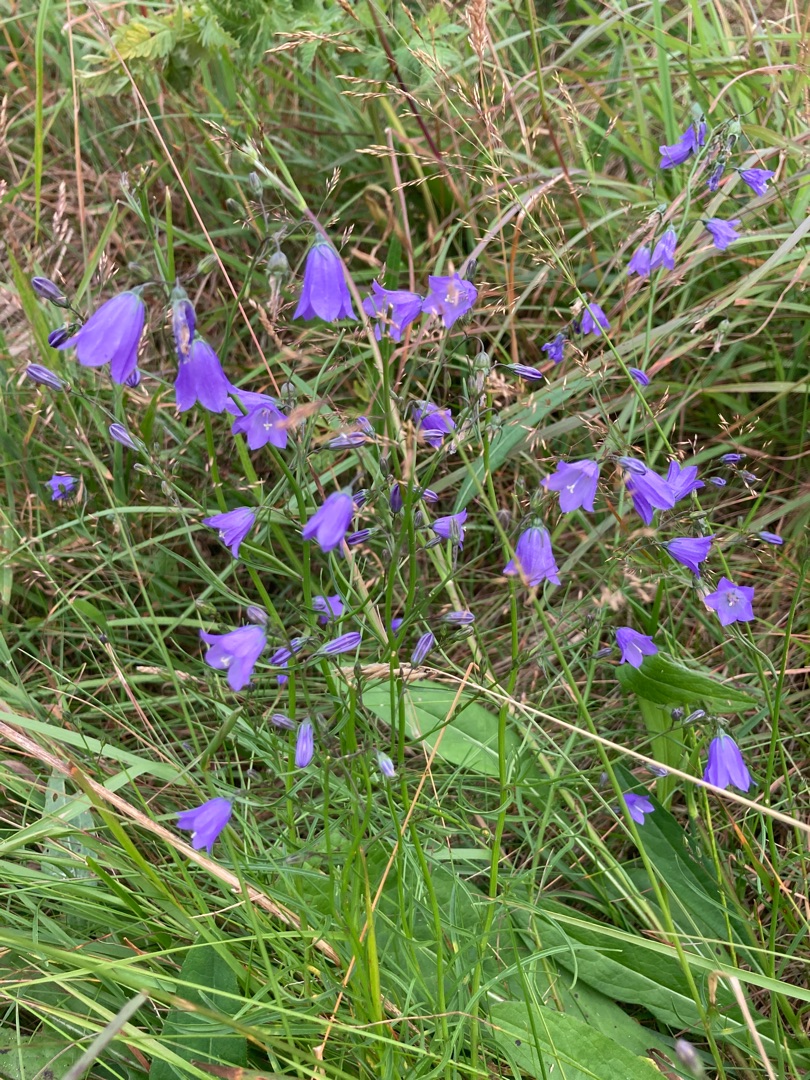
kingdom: Plantae
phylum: Tracheophyta
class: Magnoliopsida
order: Asterales
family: Campanulaceae
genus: Campanula
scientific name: Campanula rotundifolia
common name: Liden klokke
